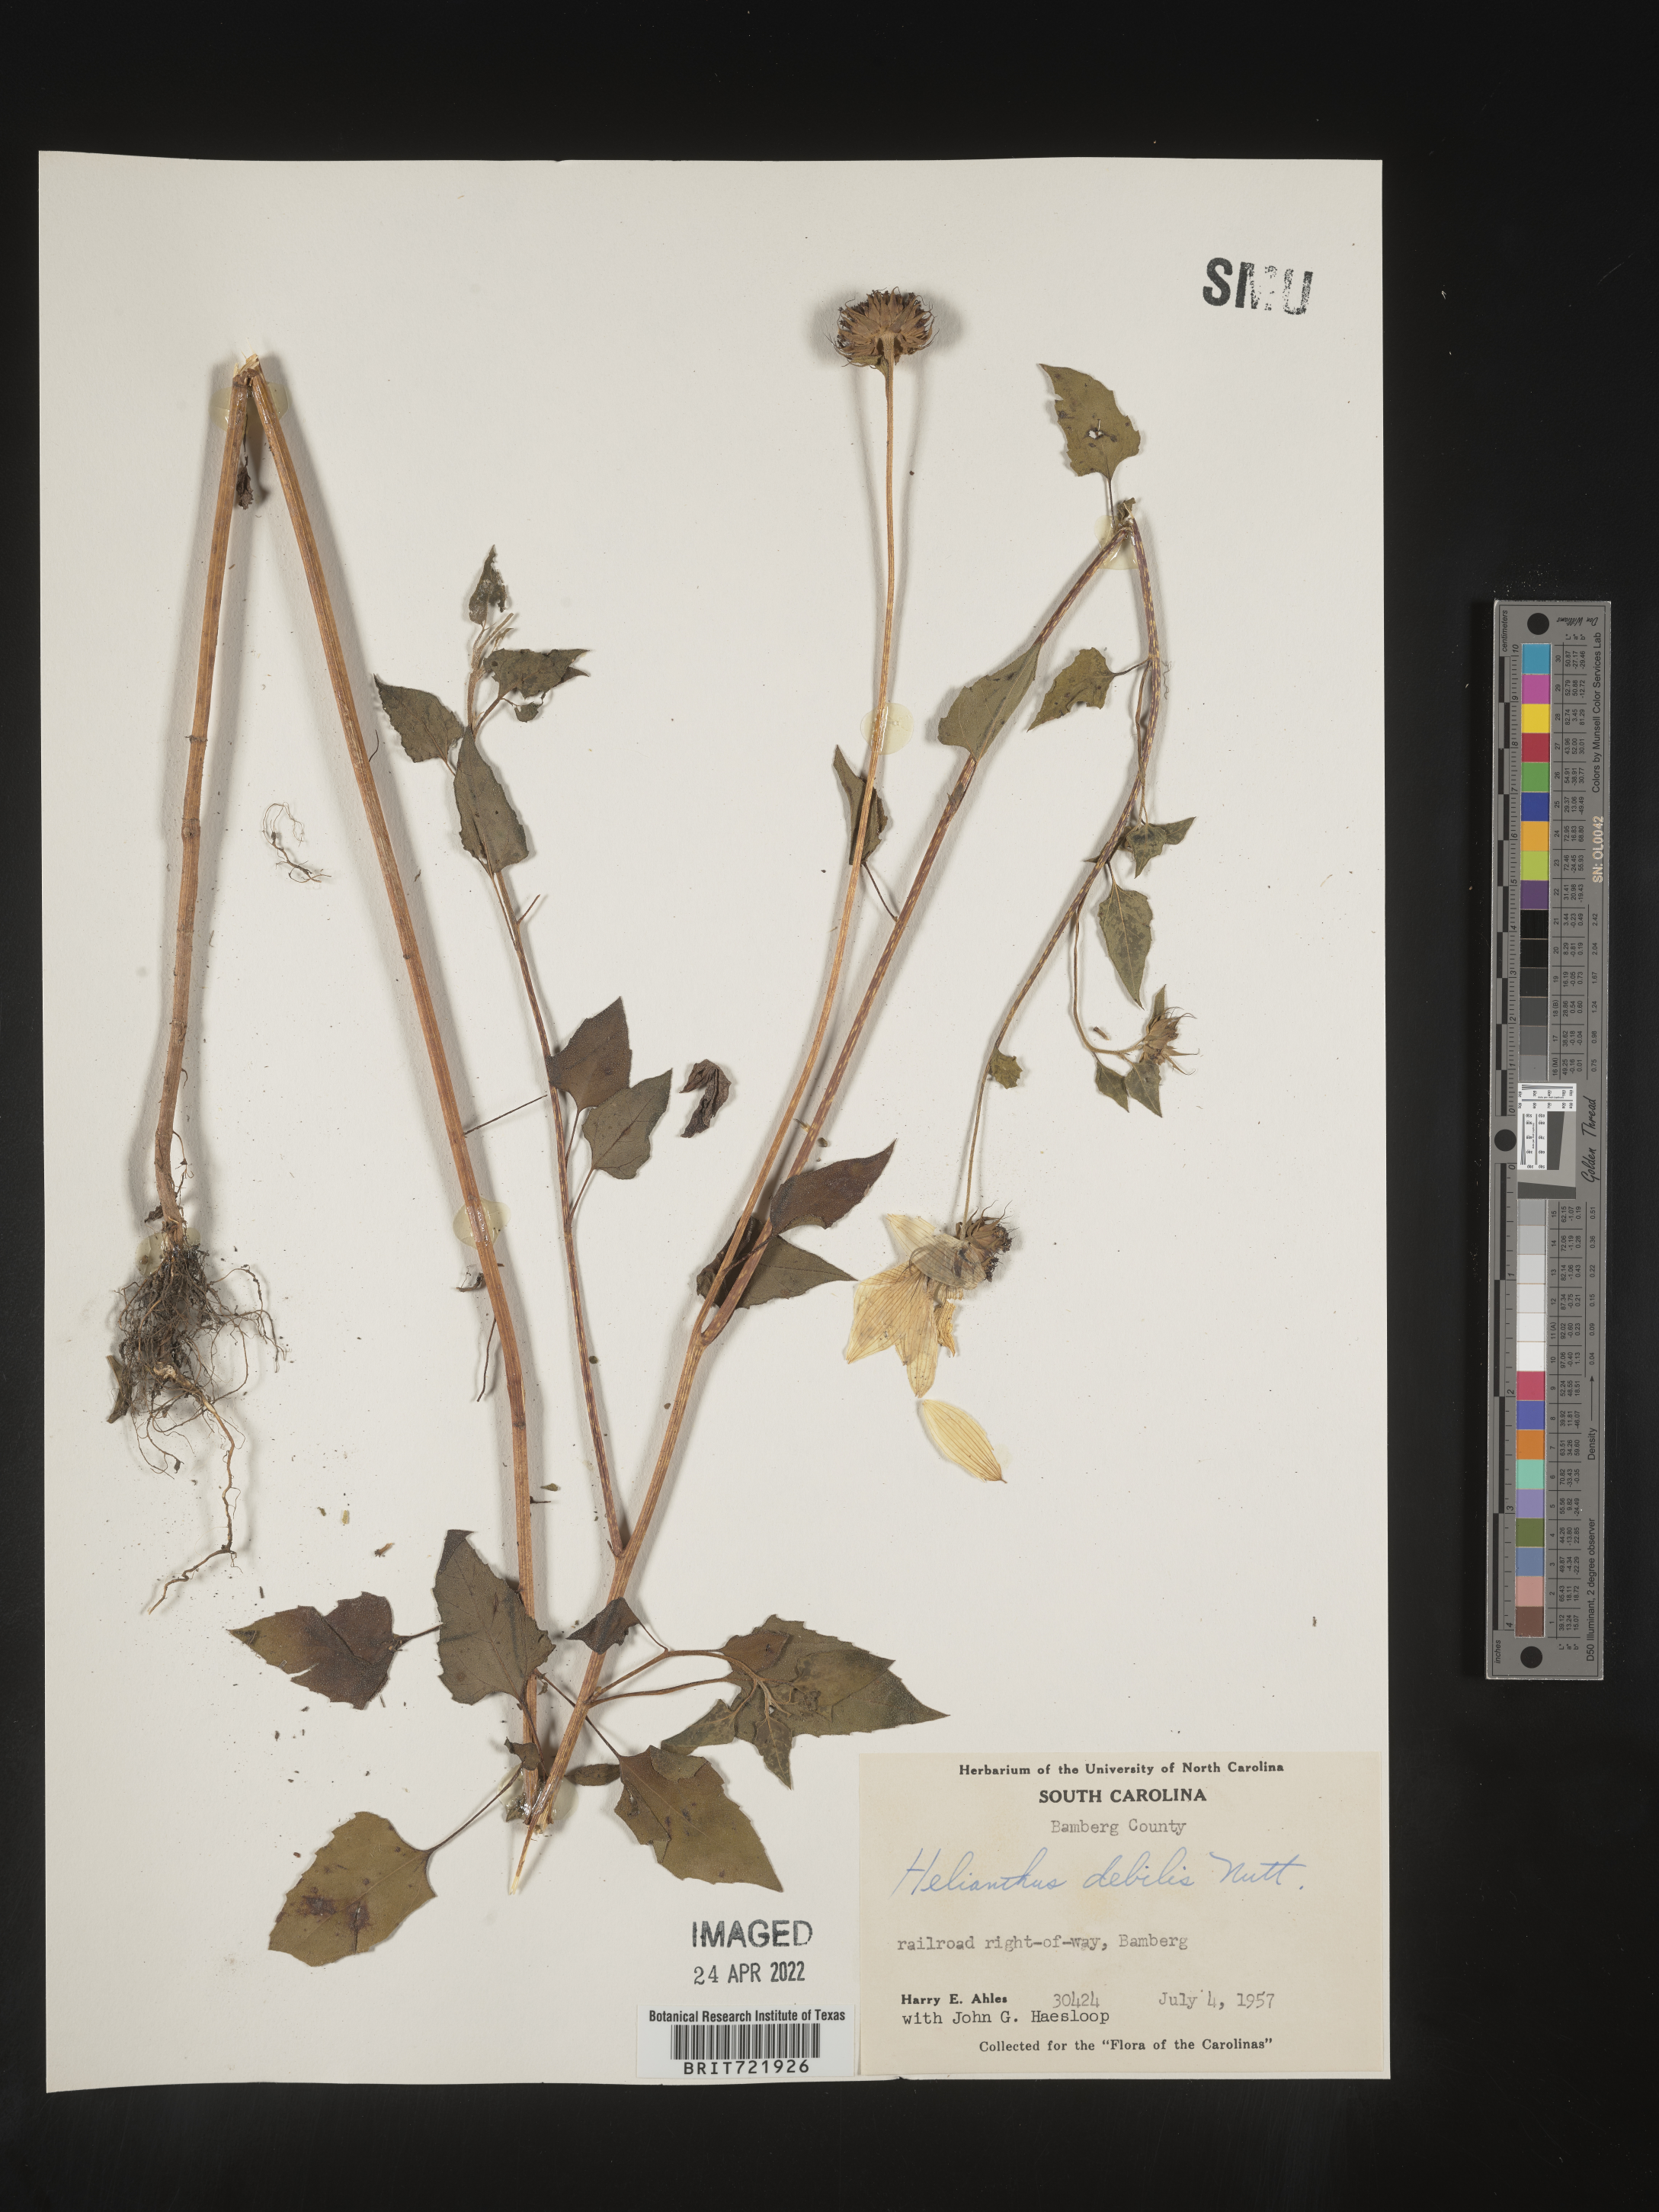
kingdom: Plantae
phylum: Tracheophyta
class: Magnoliopsida
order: Asterales
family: Asteraceae
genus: Helianthus
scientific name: Helianthus debilis
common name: Weak sunflower
